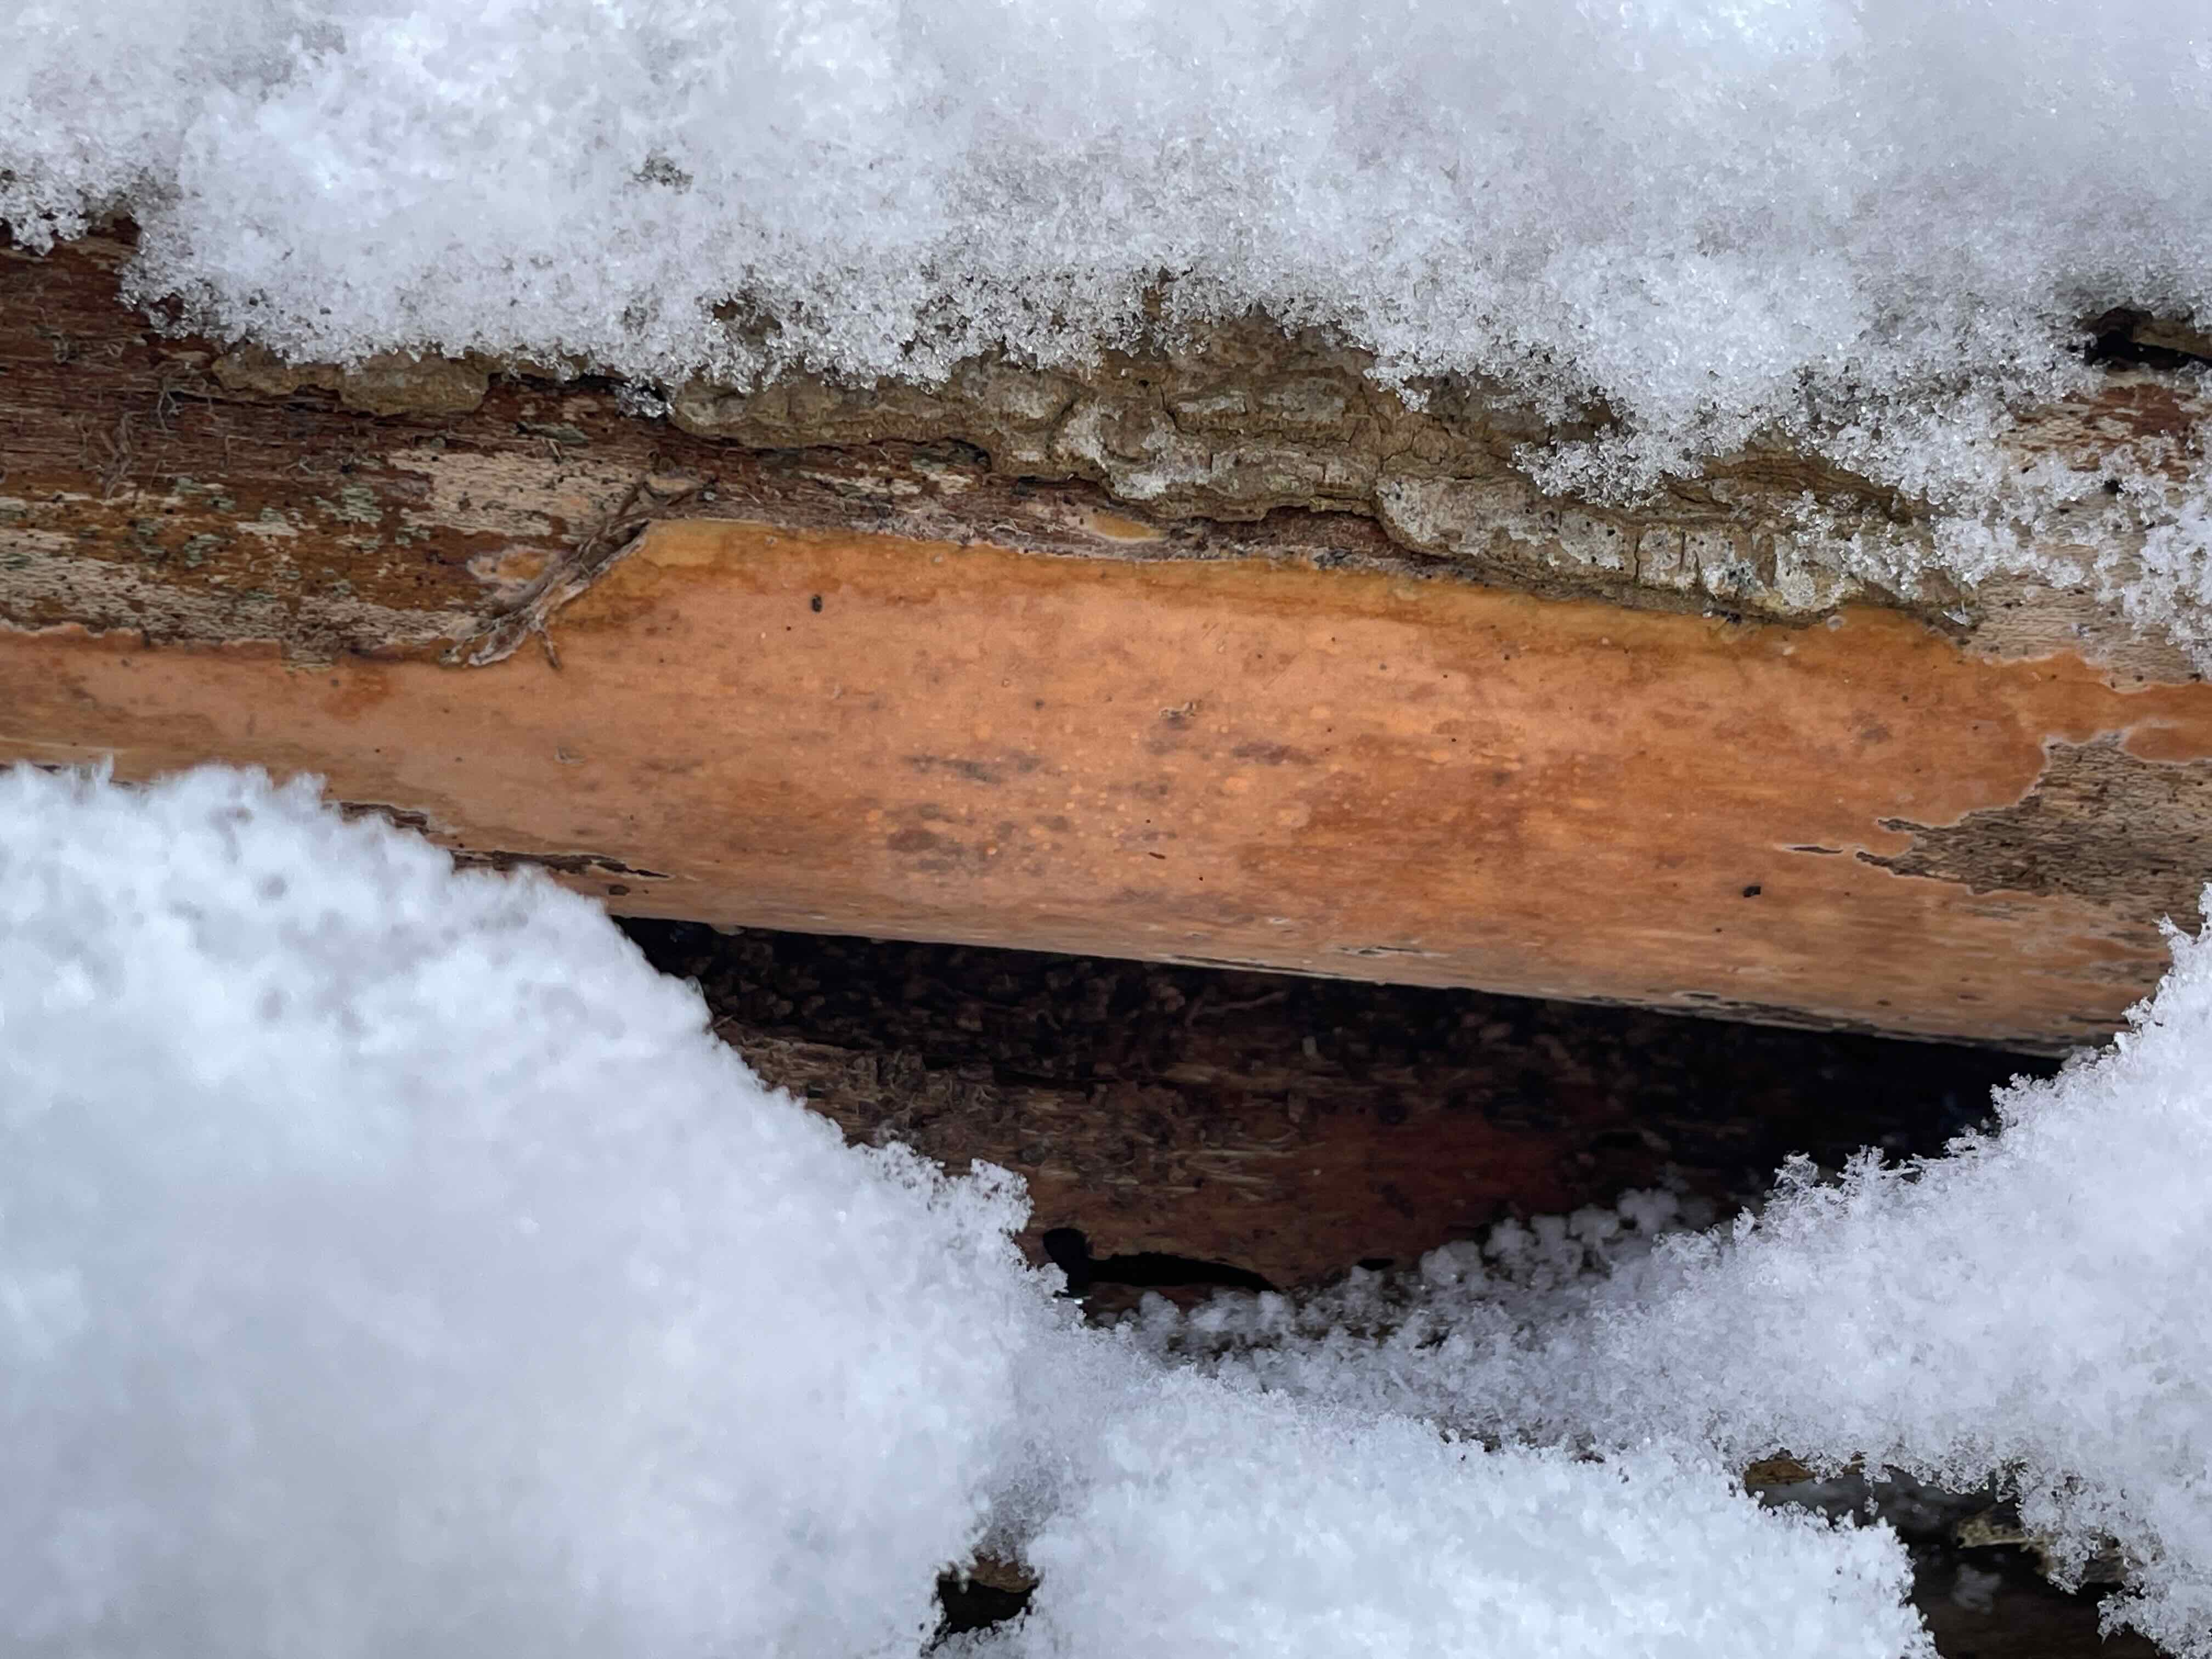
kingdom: Fungi
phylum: Basidiomycota
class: Agaricomycetes
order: Russulales
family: Peniophoraceae
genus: Peniophora
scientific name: Peniophora incarnata
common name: laksefarvet voksskind
